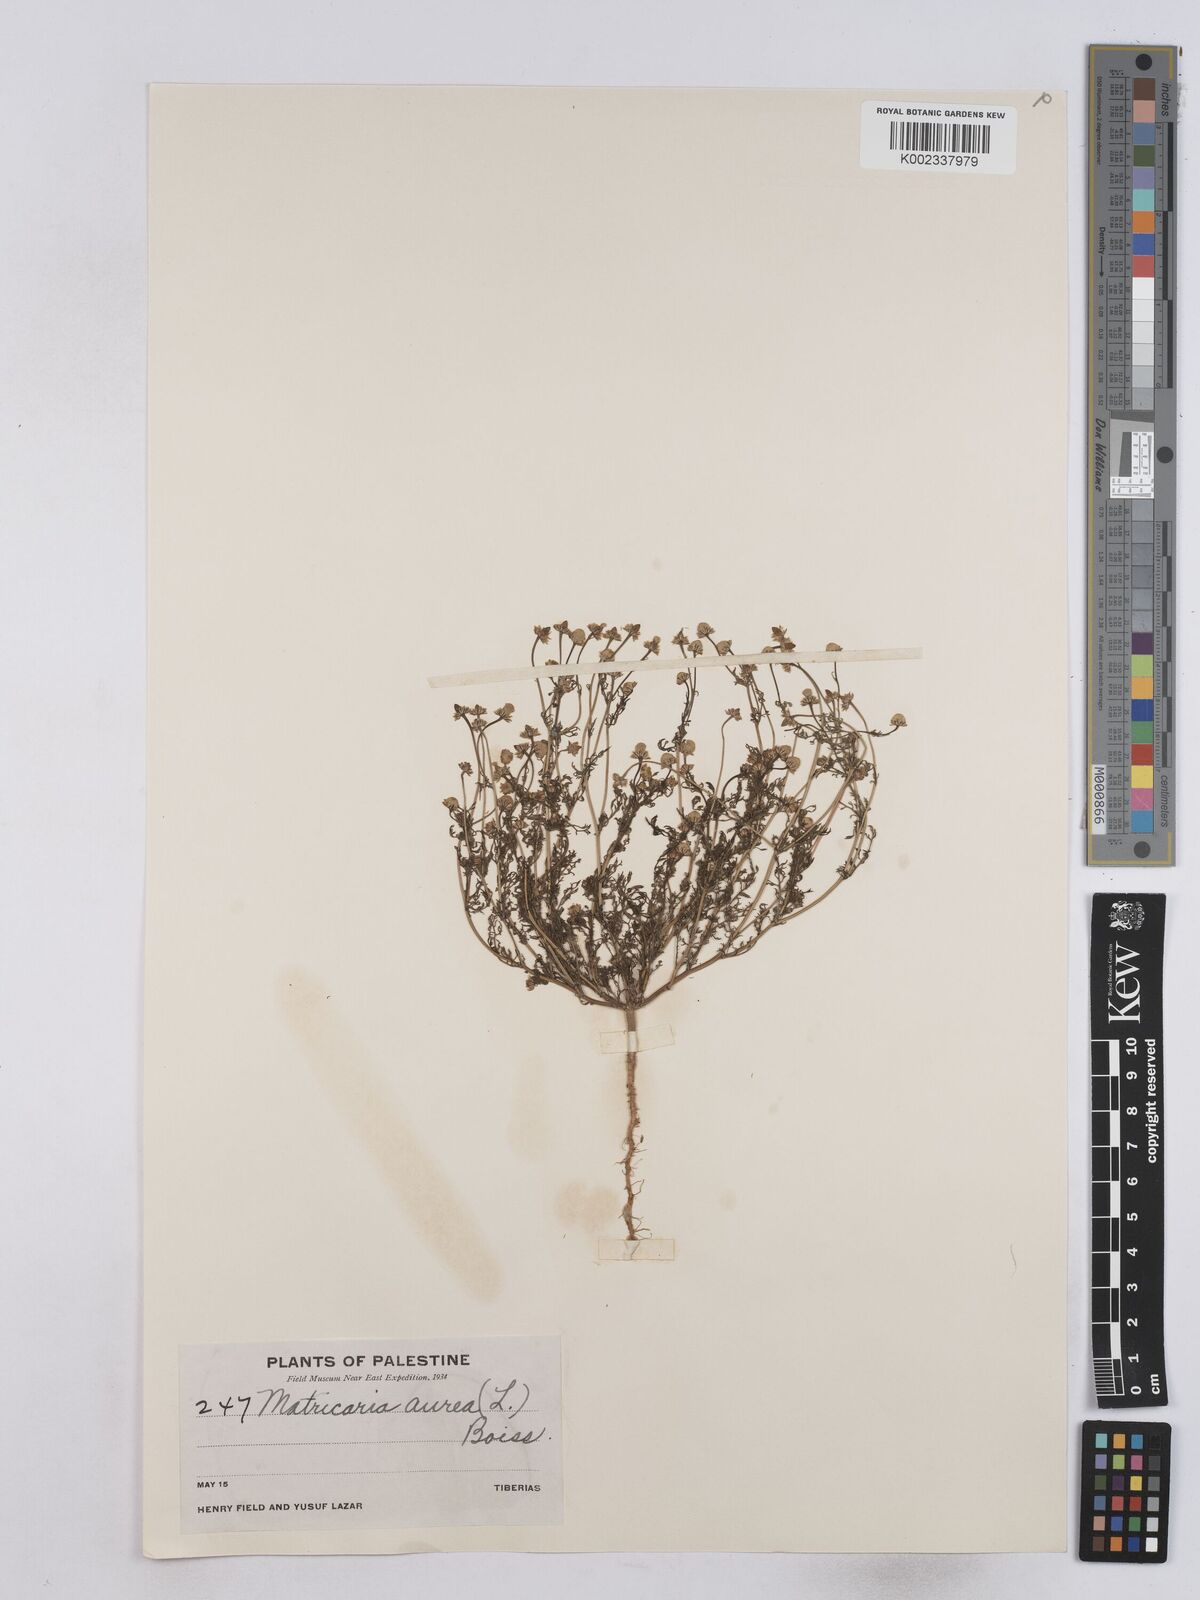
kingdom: Plantae
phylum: Tracheophyta
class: Magnoliopsida
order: Asterales
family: Asteraceae
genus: Matricaria
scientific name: Matricaria aurea
